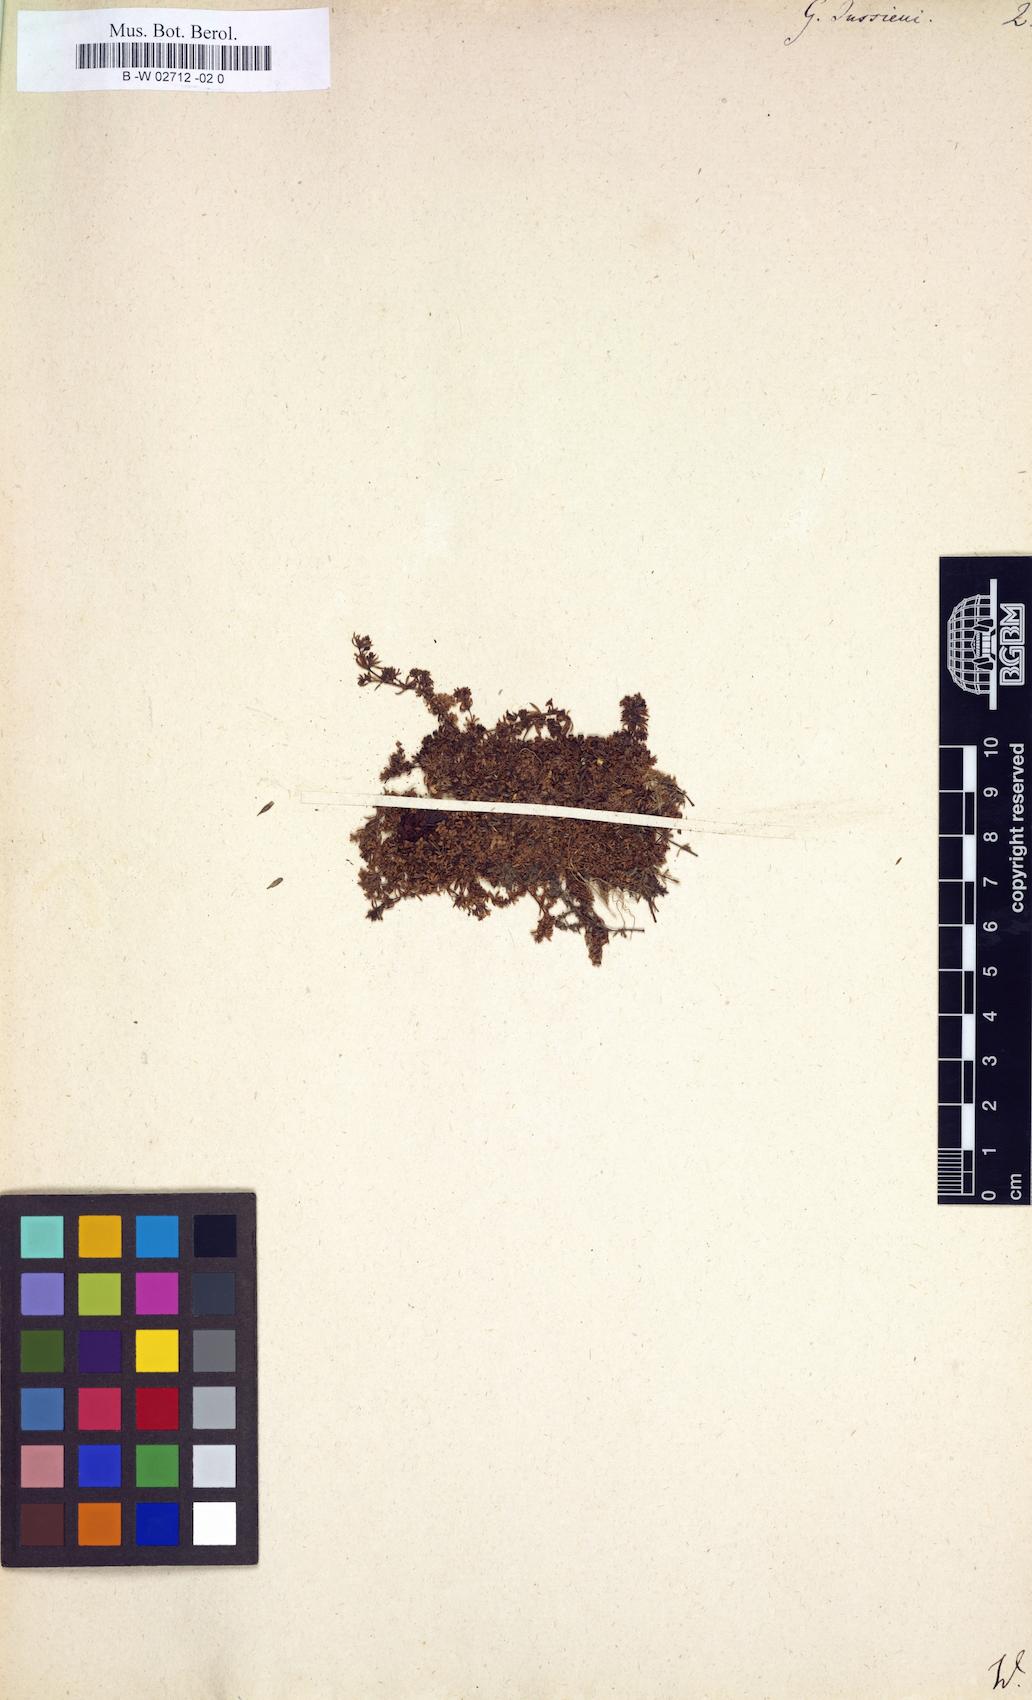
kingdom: Plantae
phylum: Tracheophyta
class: Magnoliopsida
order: Gentianales
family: Rubiaceae
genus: Galium
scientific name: Galium
